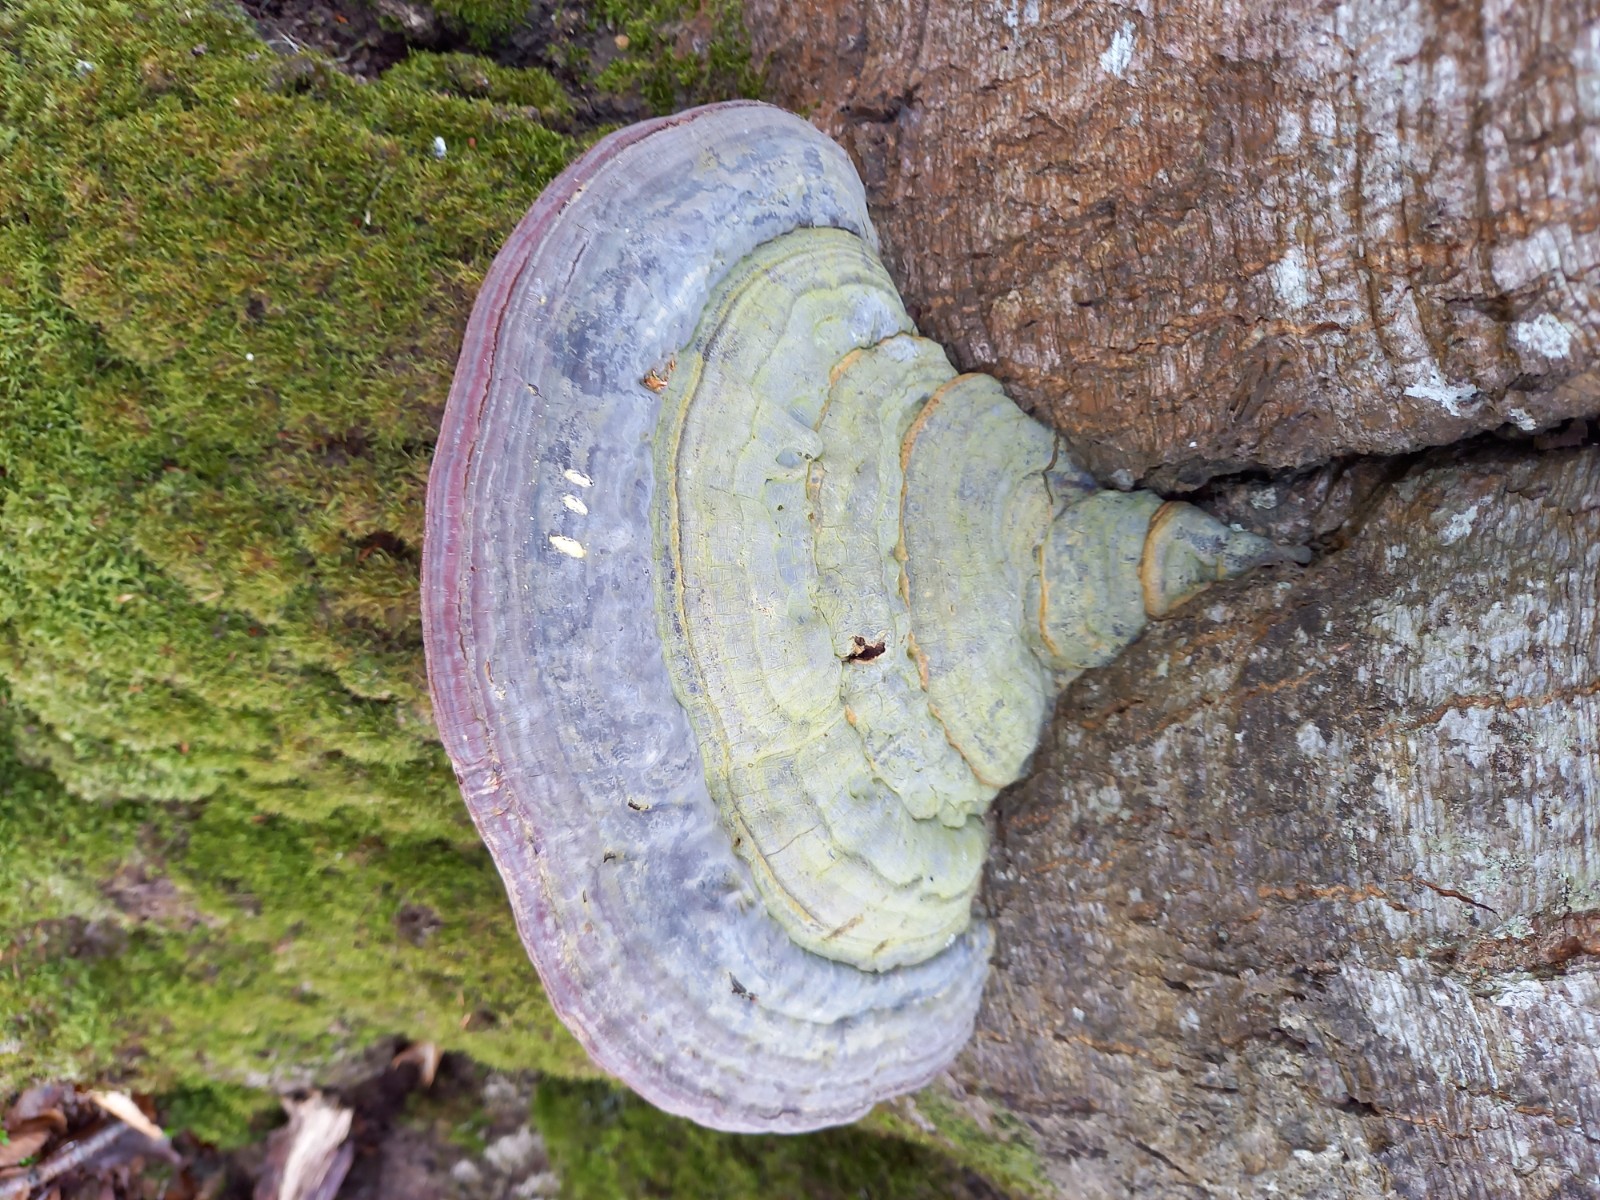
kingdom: Fungi
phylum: Basidiomycota
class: Agaricomycetes
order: Polyporales
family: Polyporaceae
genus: Ganoderma
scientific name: Ganoderma pfeifferi
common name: kobberrød lakporesvamp
